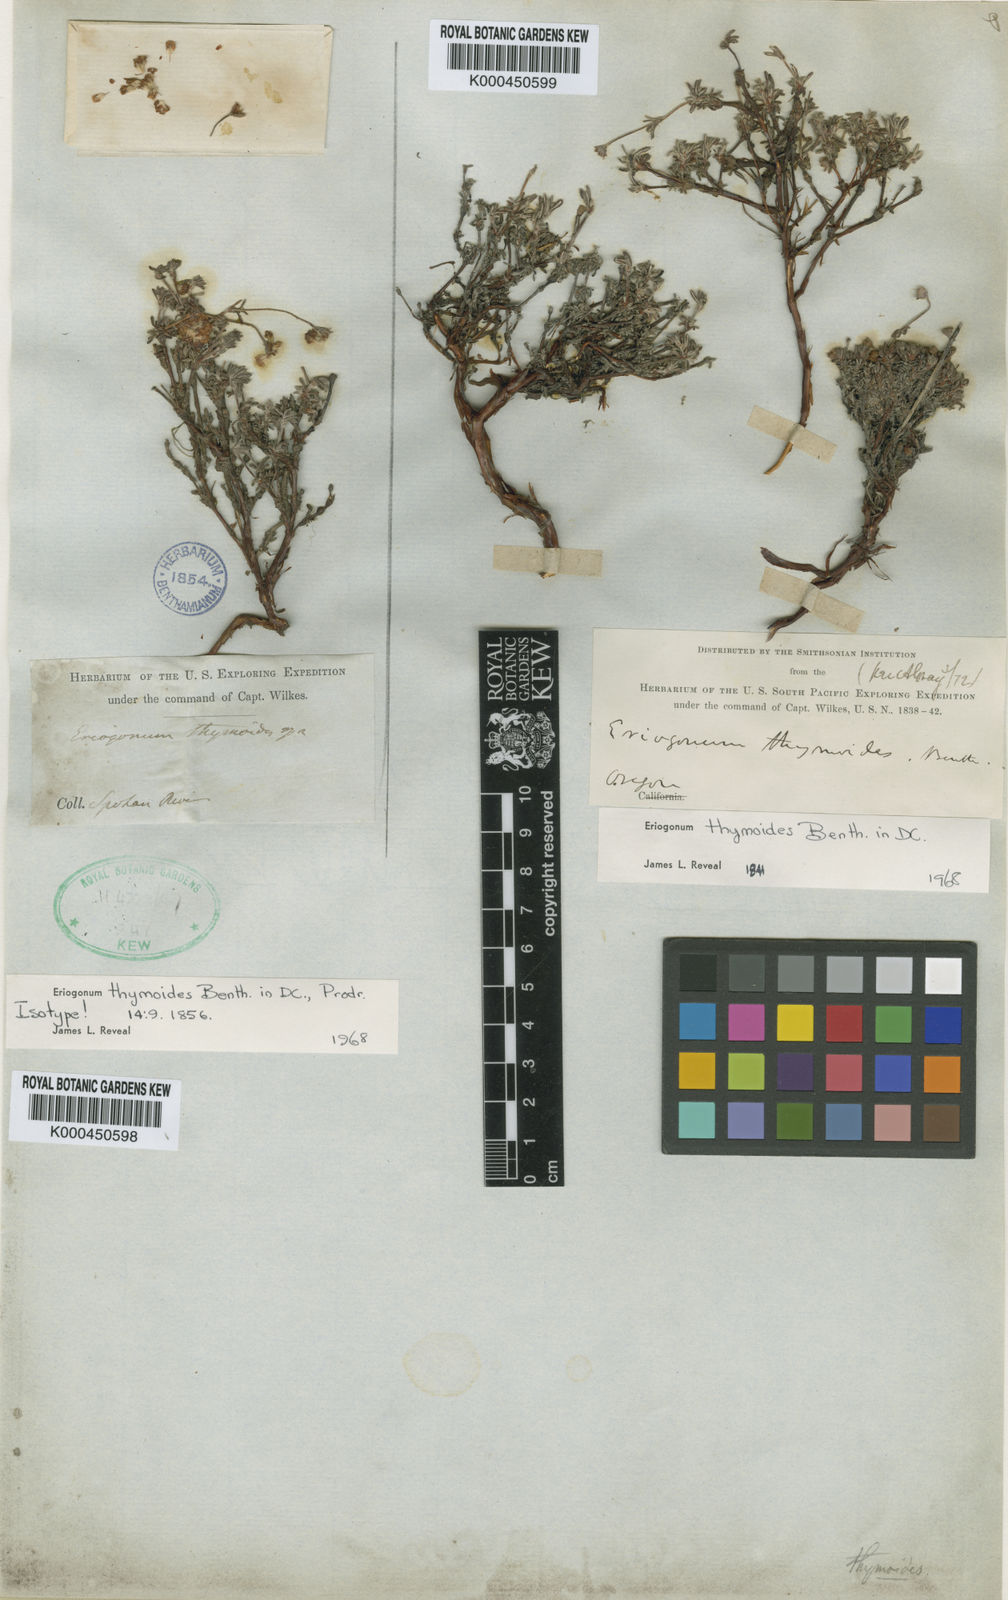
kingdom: Plantae
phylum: Tracheophyta
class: Magnoliopsida
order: Caryophyllales
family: Polygonaceae
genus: Eriogonum
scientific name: Eriogonum thymoides
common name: Thyme-leaf wild buckwheat
